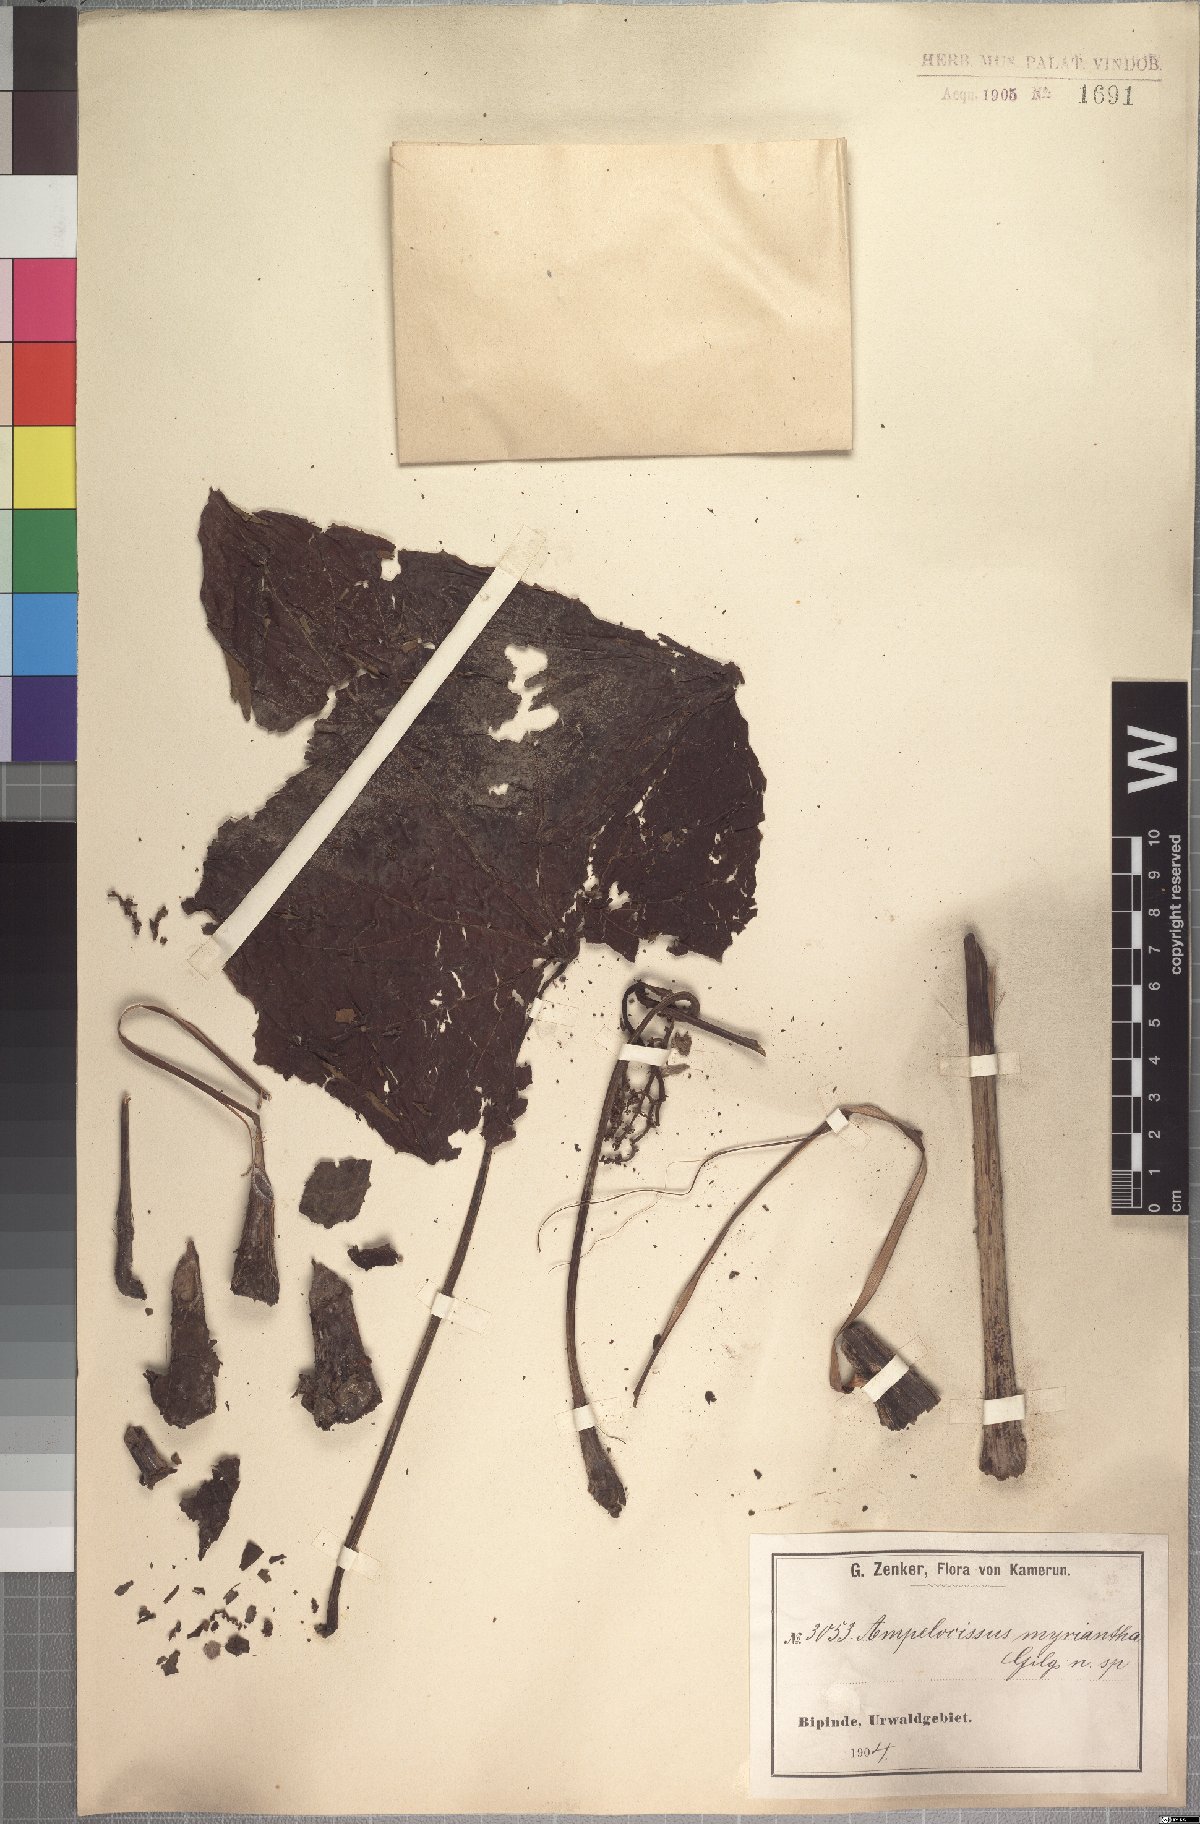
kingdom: Plantae
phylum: Tracheophyta
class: Magnoliopsida
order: Vitales
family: Vitaceae
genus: Ampelocissus
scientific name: Ampelocissus macrocirrha
